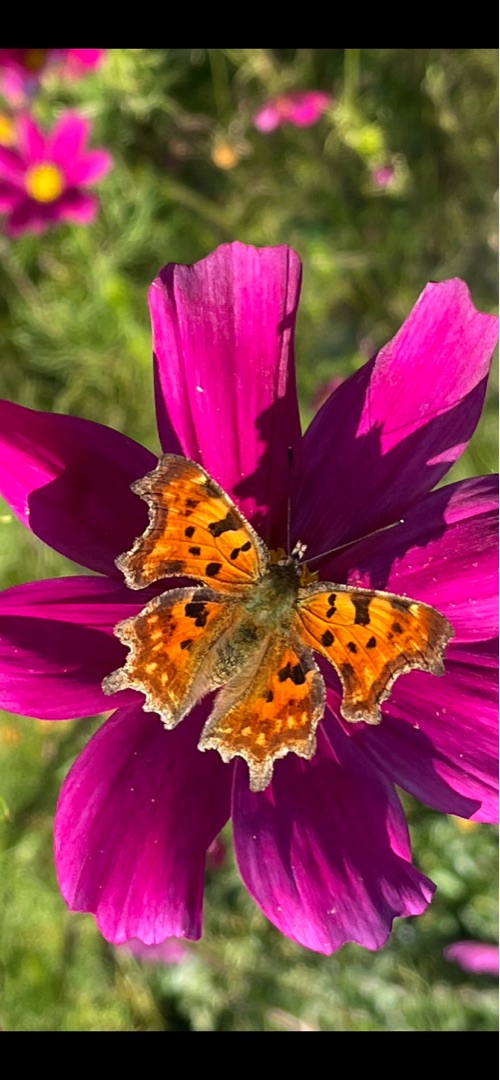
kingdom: Animalia
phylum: Arthropoda
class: Insecta
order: Lepidoptera
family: Nymphalidae
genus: Polygonia
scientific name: Polygonia c-album
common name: Det hvide C
